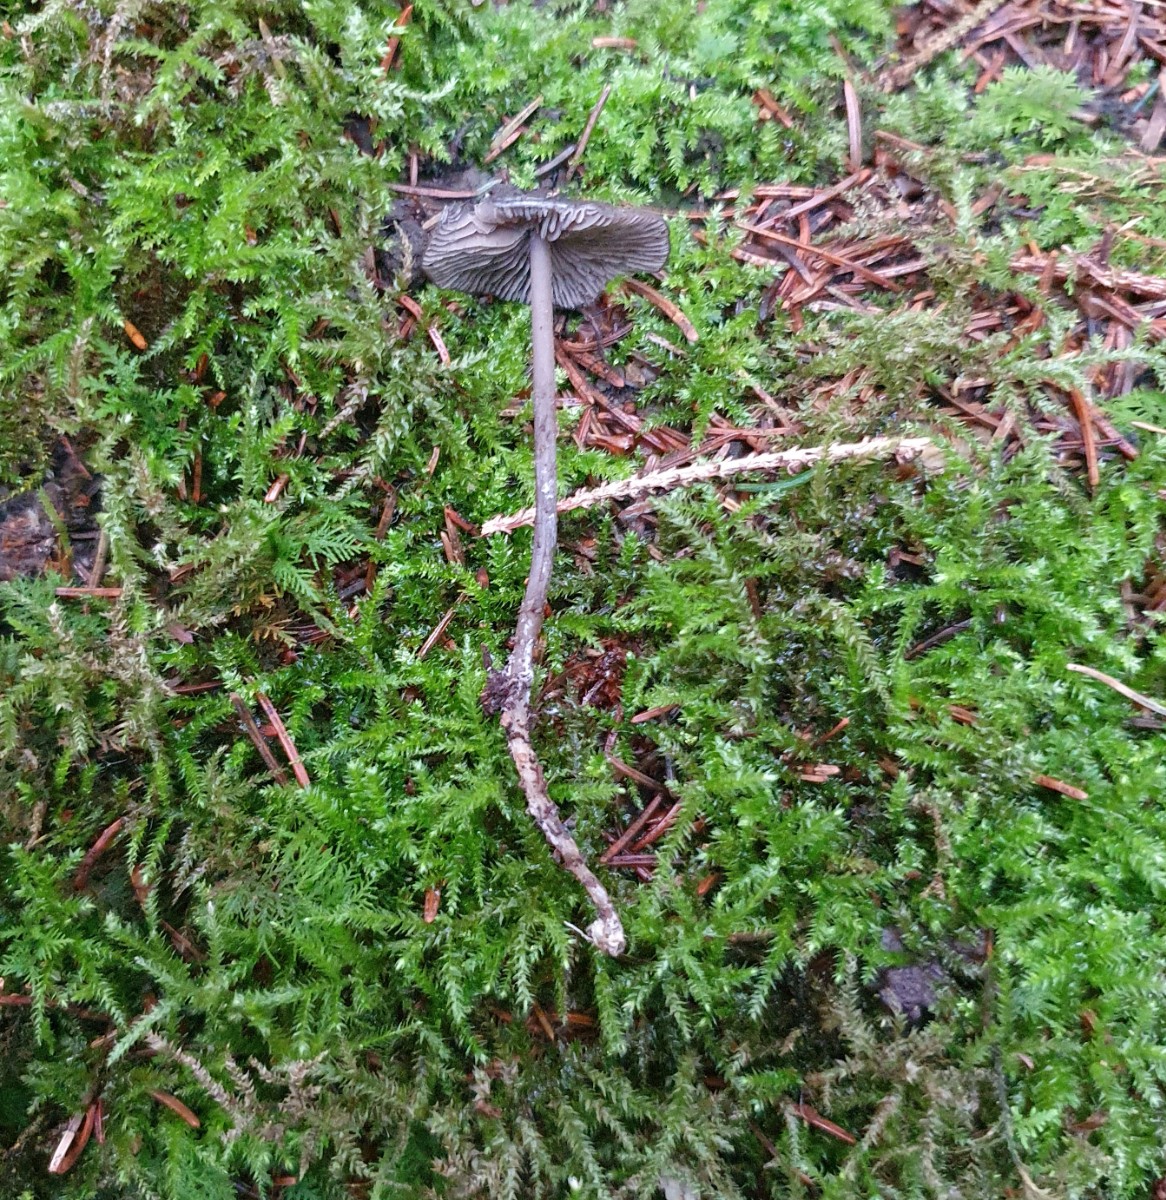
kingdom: Fungi
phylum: Basidiomycota
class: Agaricomycetes
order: Agaricales
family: Lyophyllaceae
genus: Tephrocybe
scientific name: Tephrocybe rancida
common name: mel-gråblad
